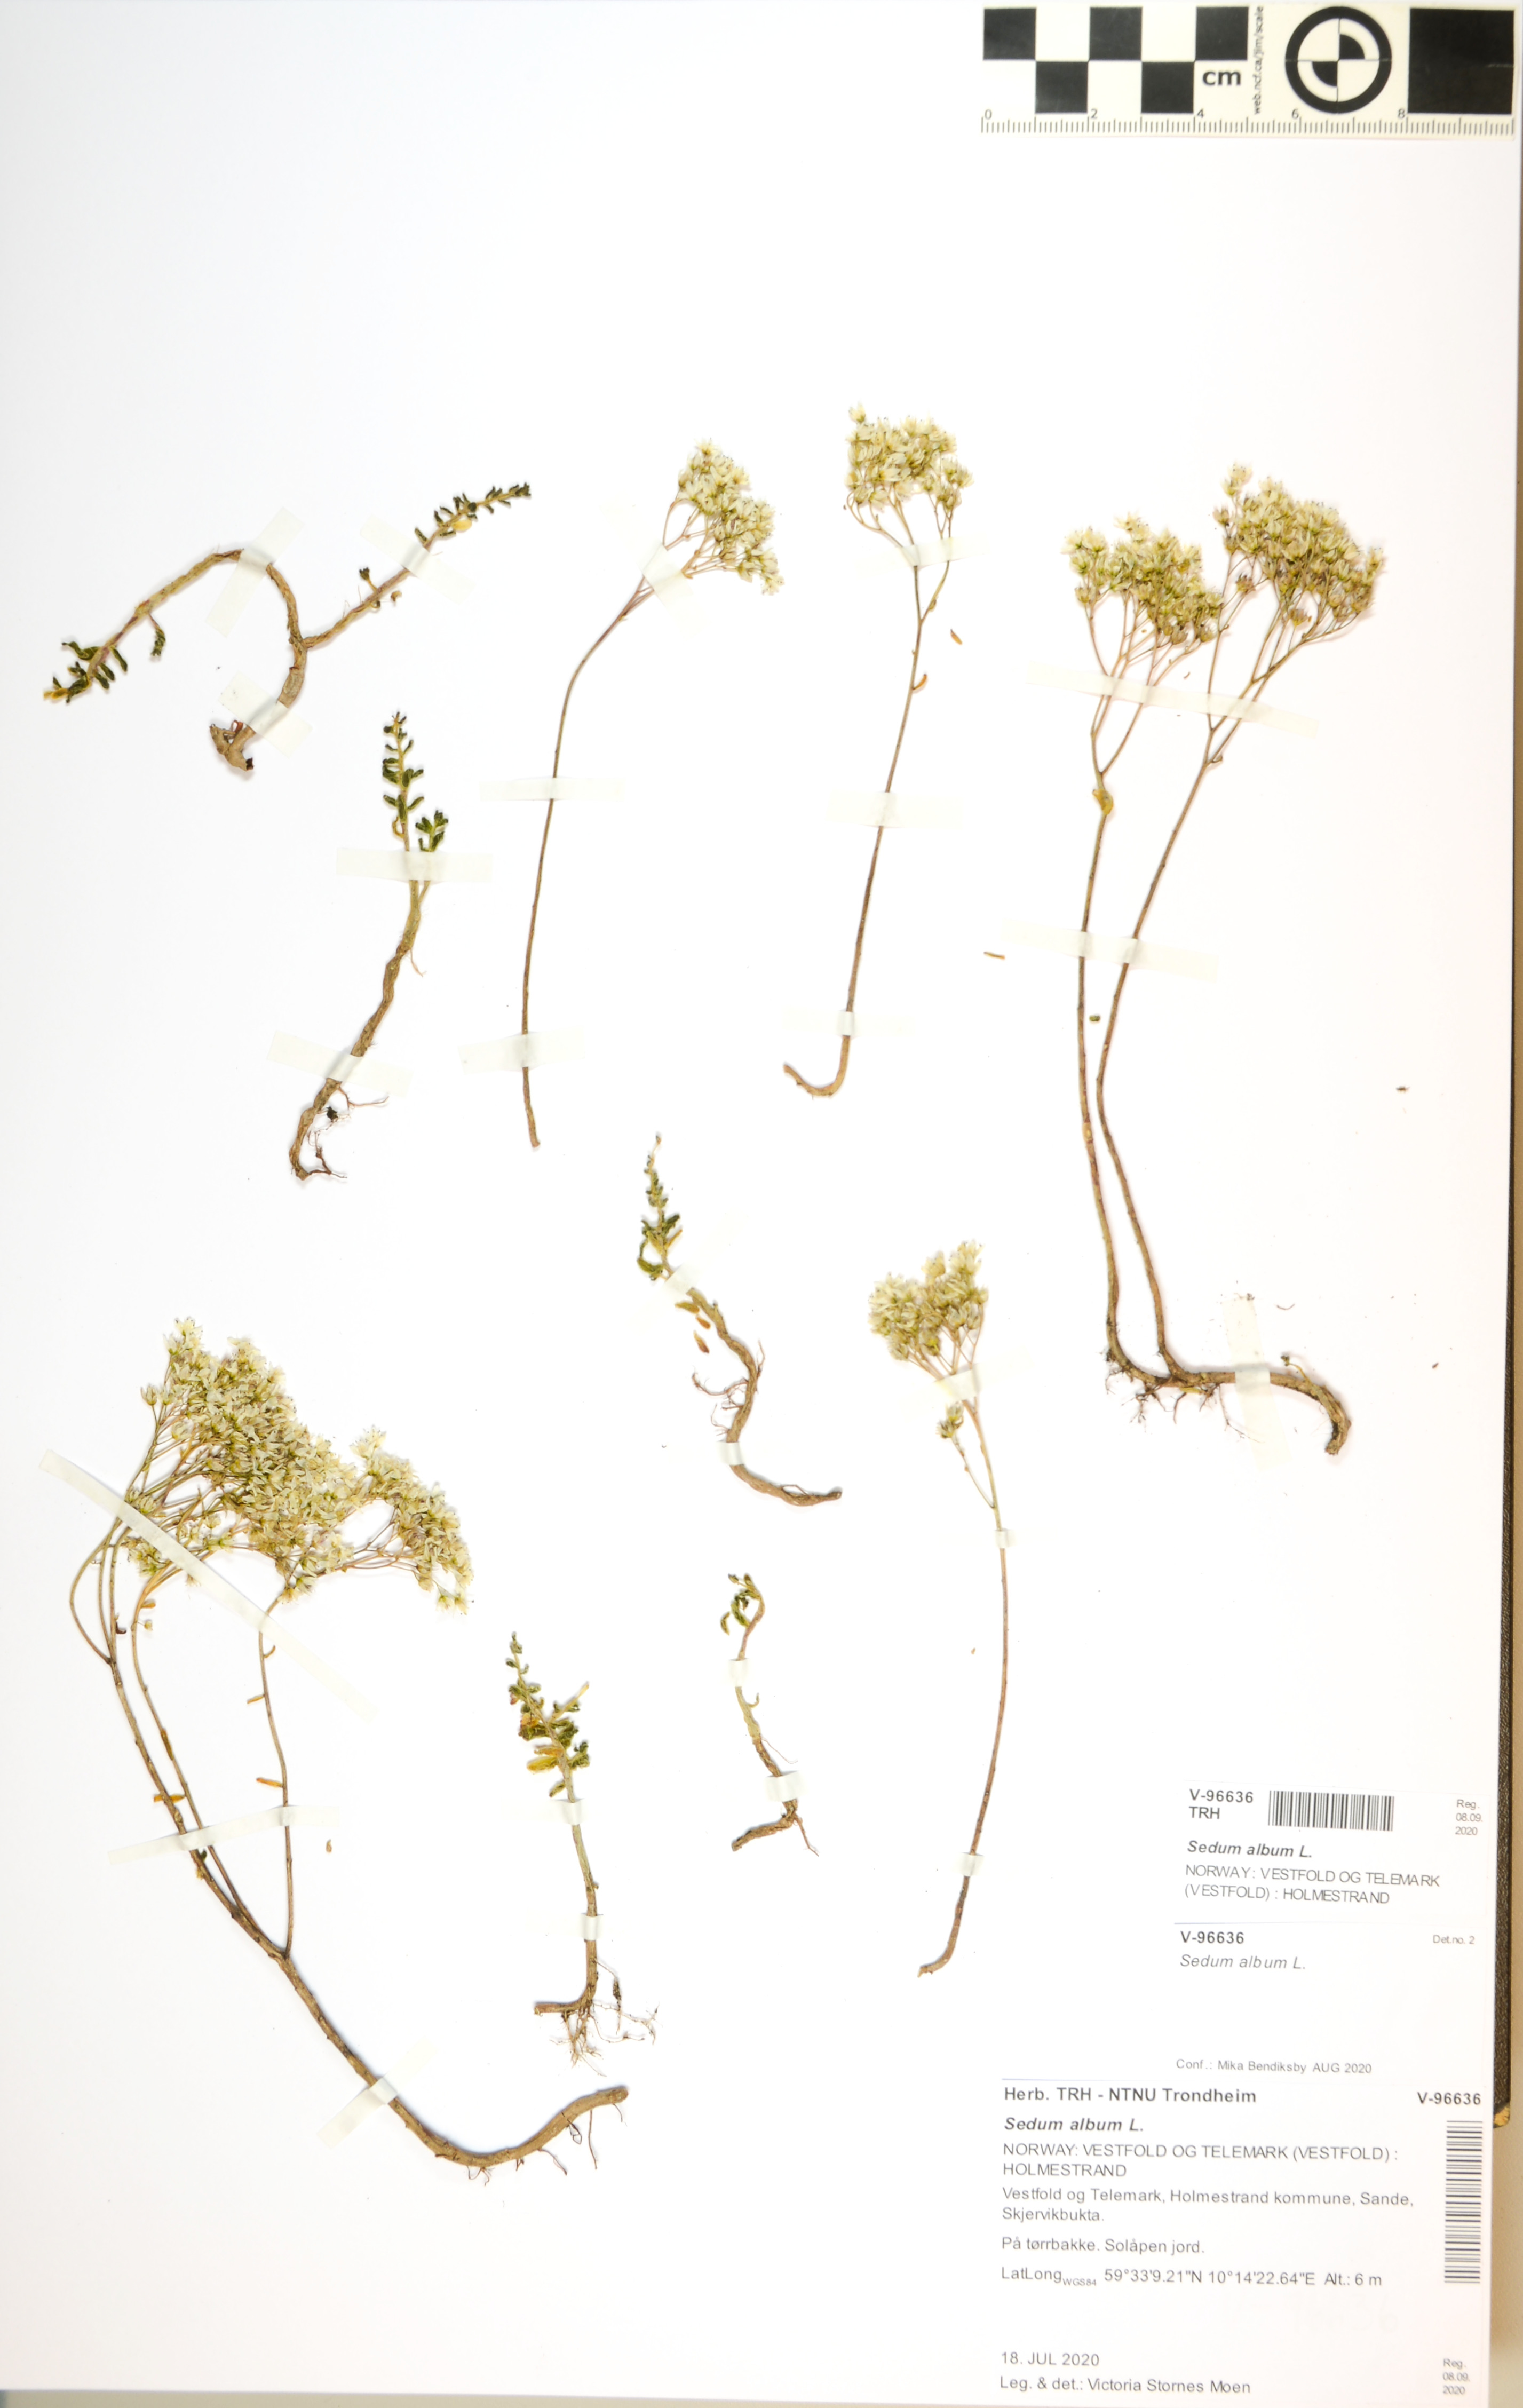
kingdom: Plantae
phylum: Tracheophyta
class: Magnoliopsida
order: Saxifragales
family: Crassulaceae
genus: Sedum
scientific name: Sedum album
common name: White stonecrop
